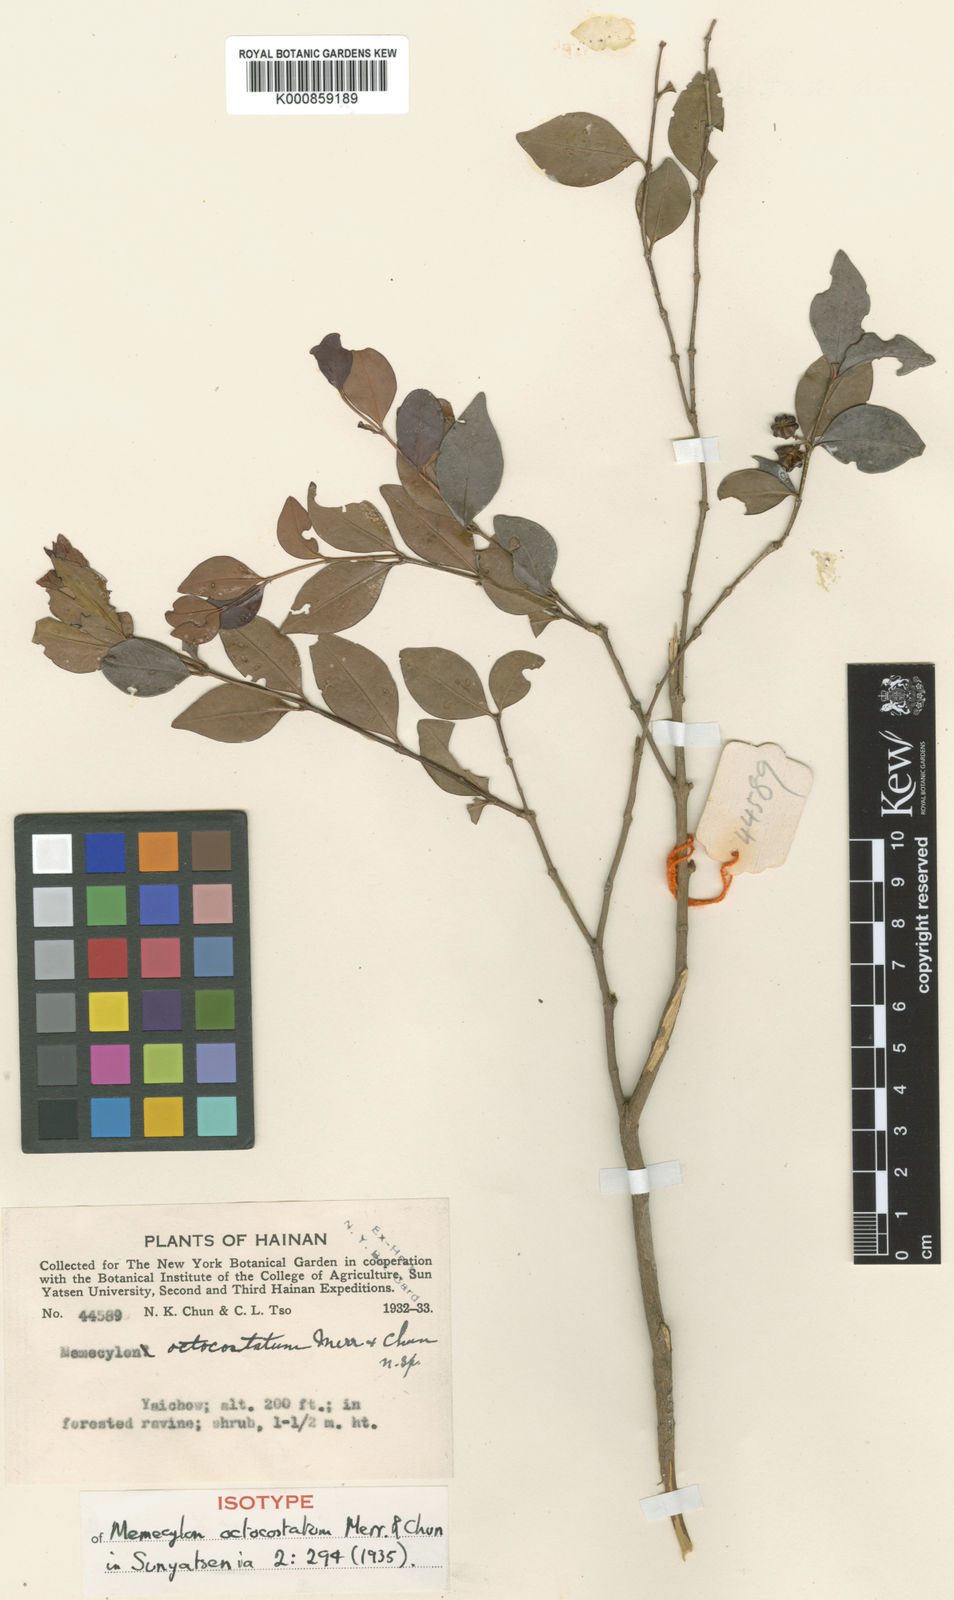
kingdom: Plantae
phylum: Tracheophyta
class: Magnoliopsida
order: Myrtales
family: Melastomataceae
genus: Memecylon
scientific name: Memecylon octocostatum
